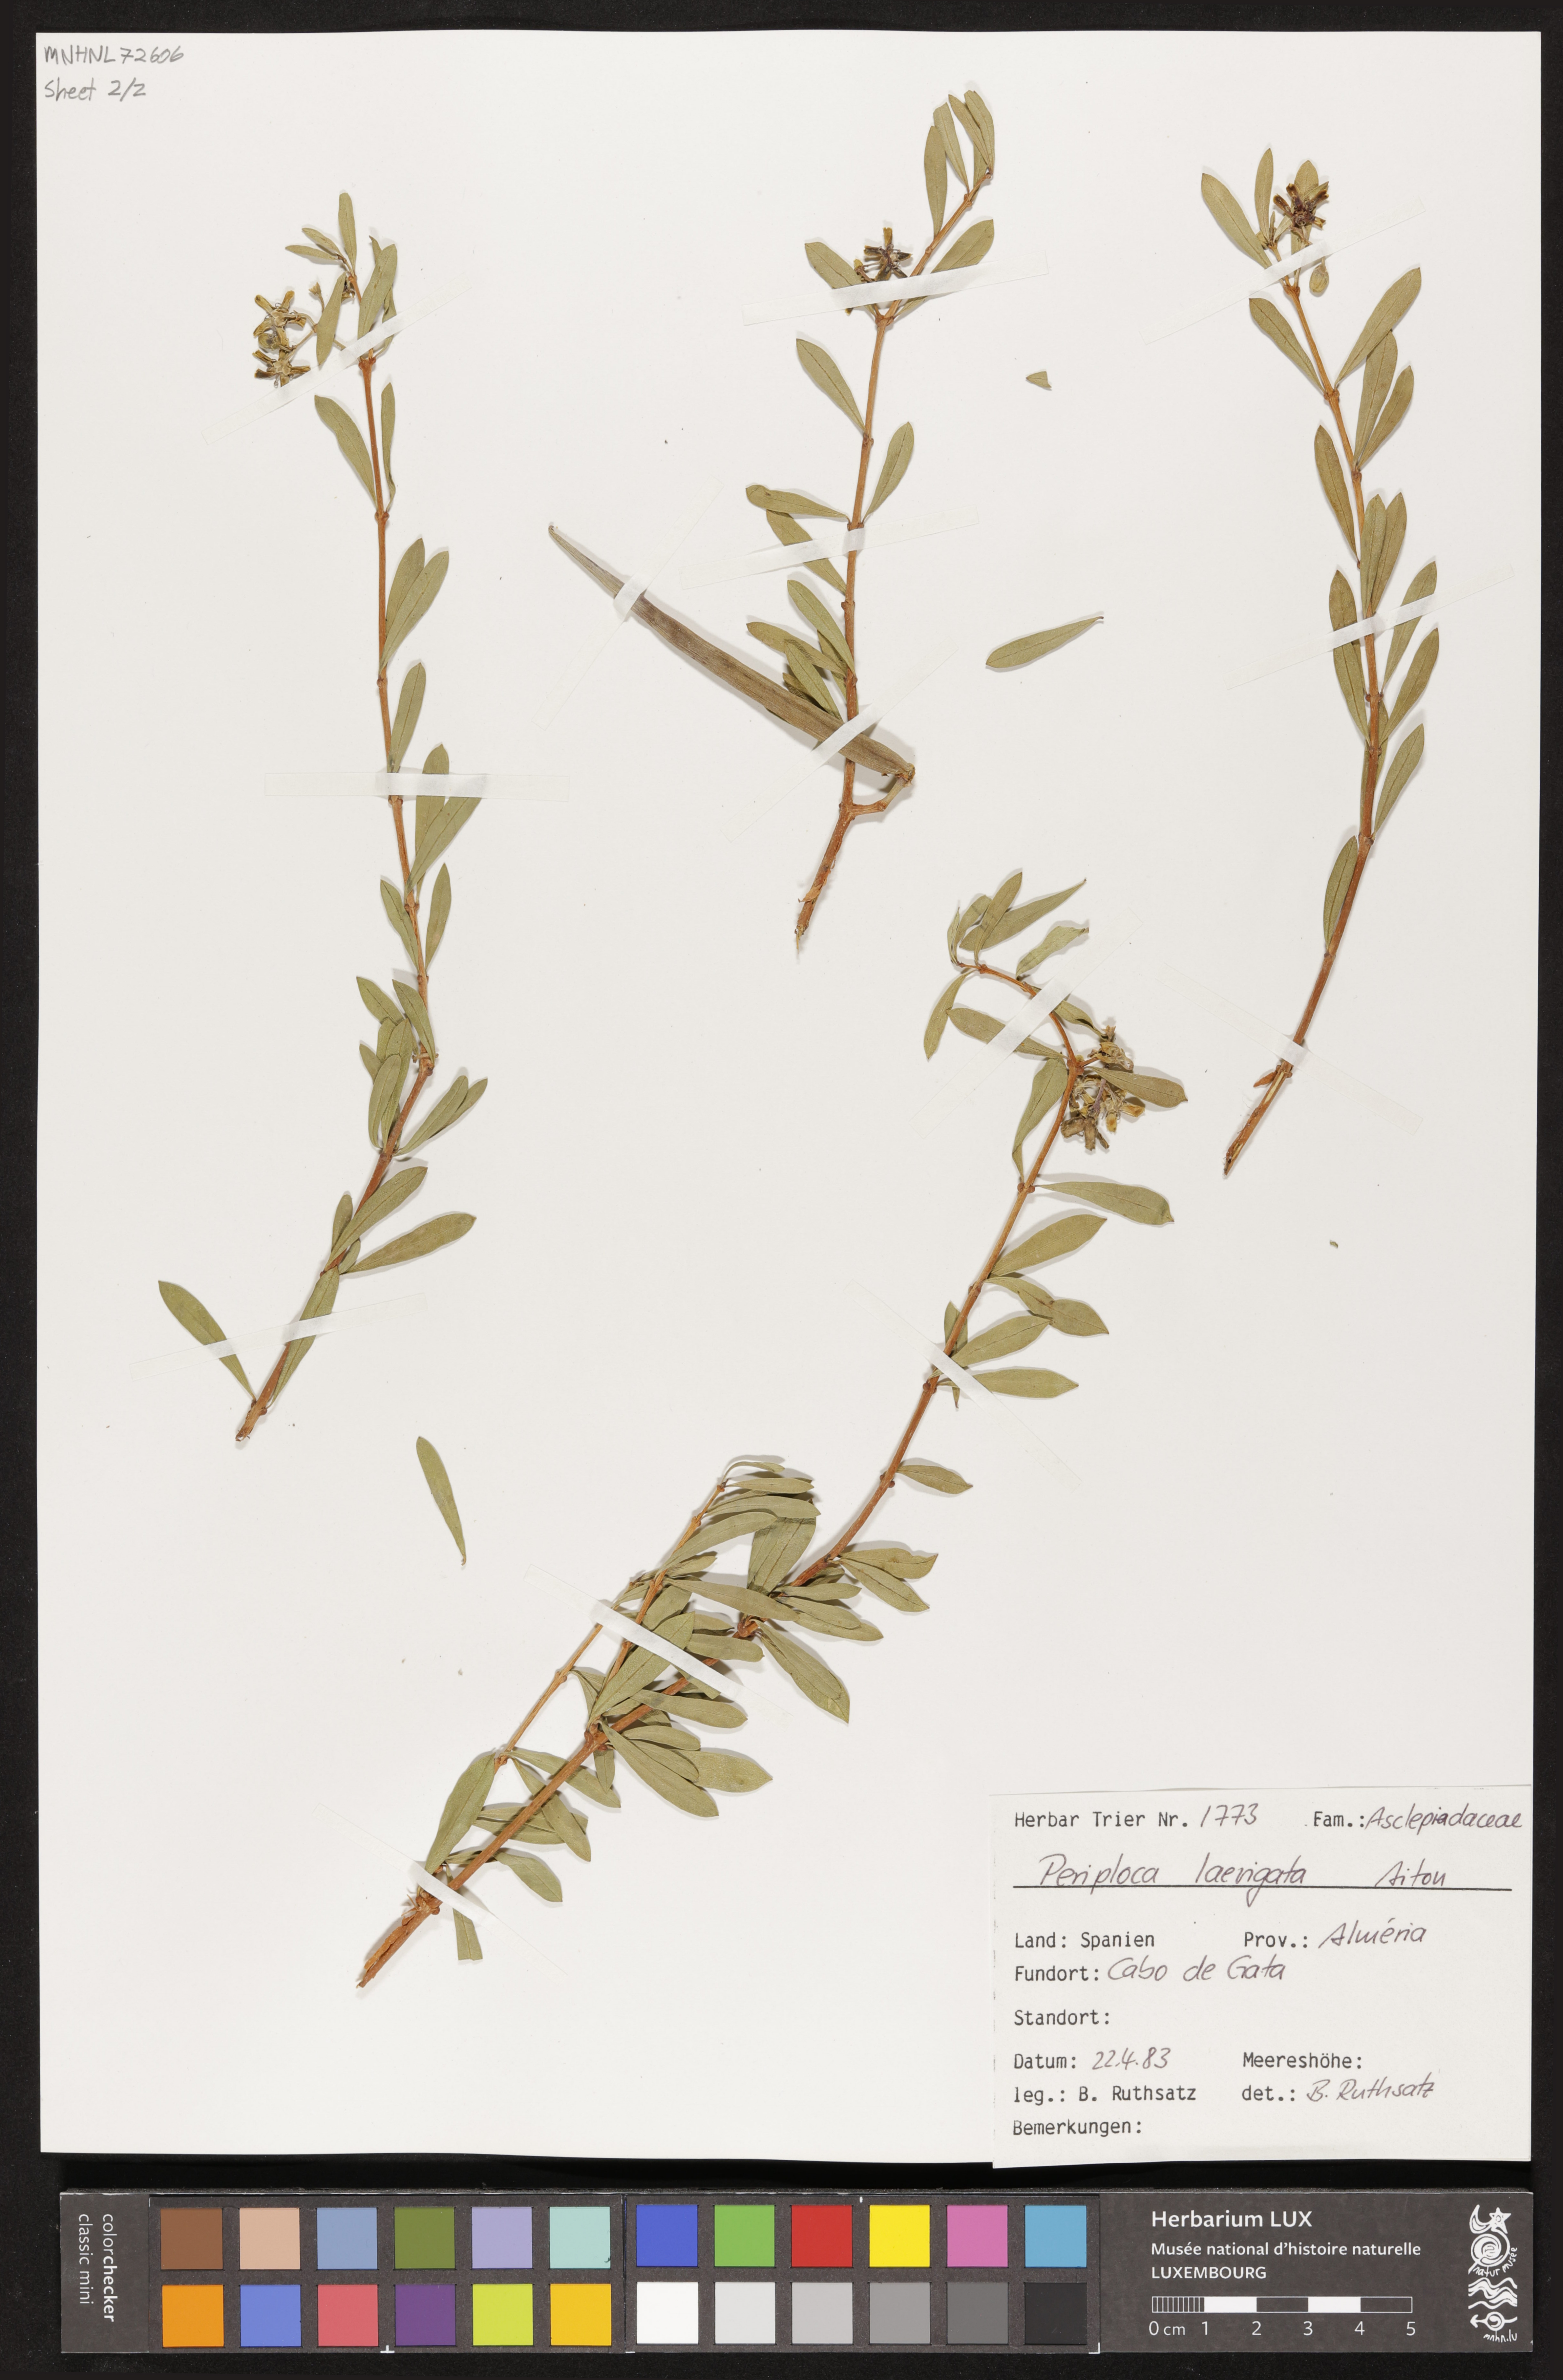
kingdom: Plantae
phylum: Tracheophyta
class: Magnoliopsida
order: Gentianales
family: Apocynaceae
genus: Periploca
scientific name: Periploca laevigata
